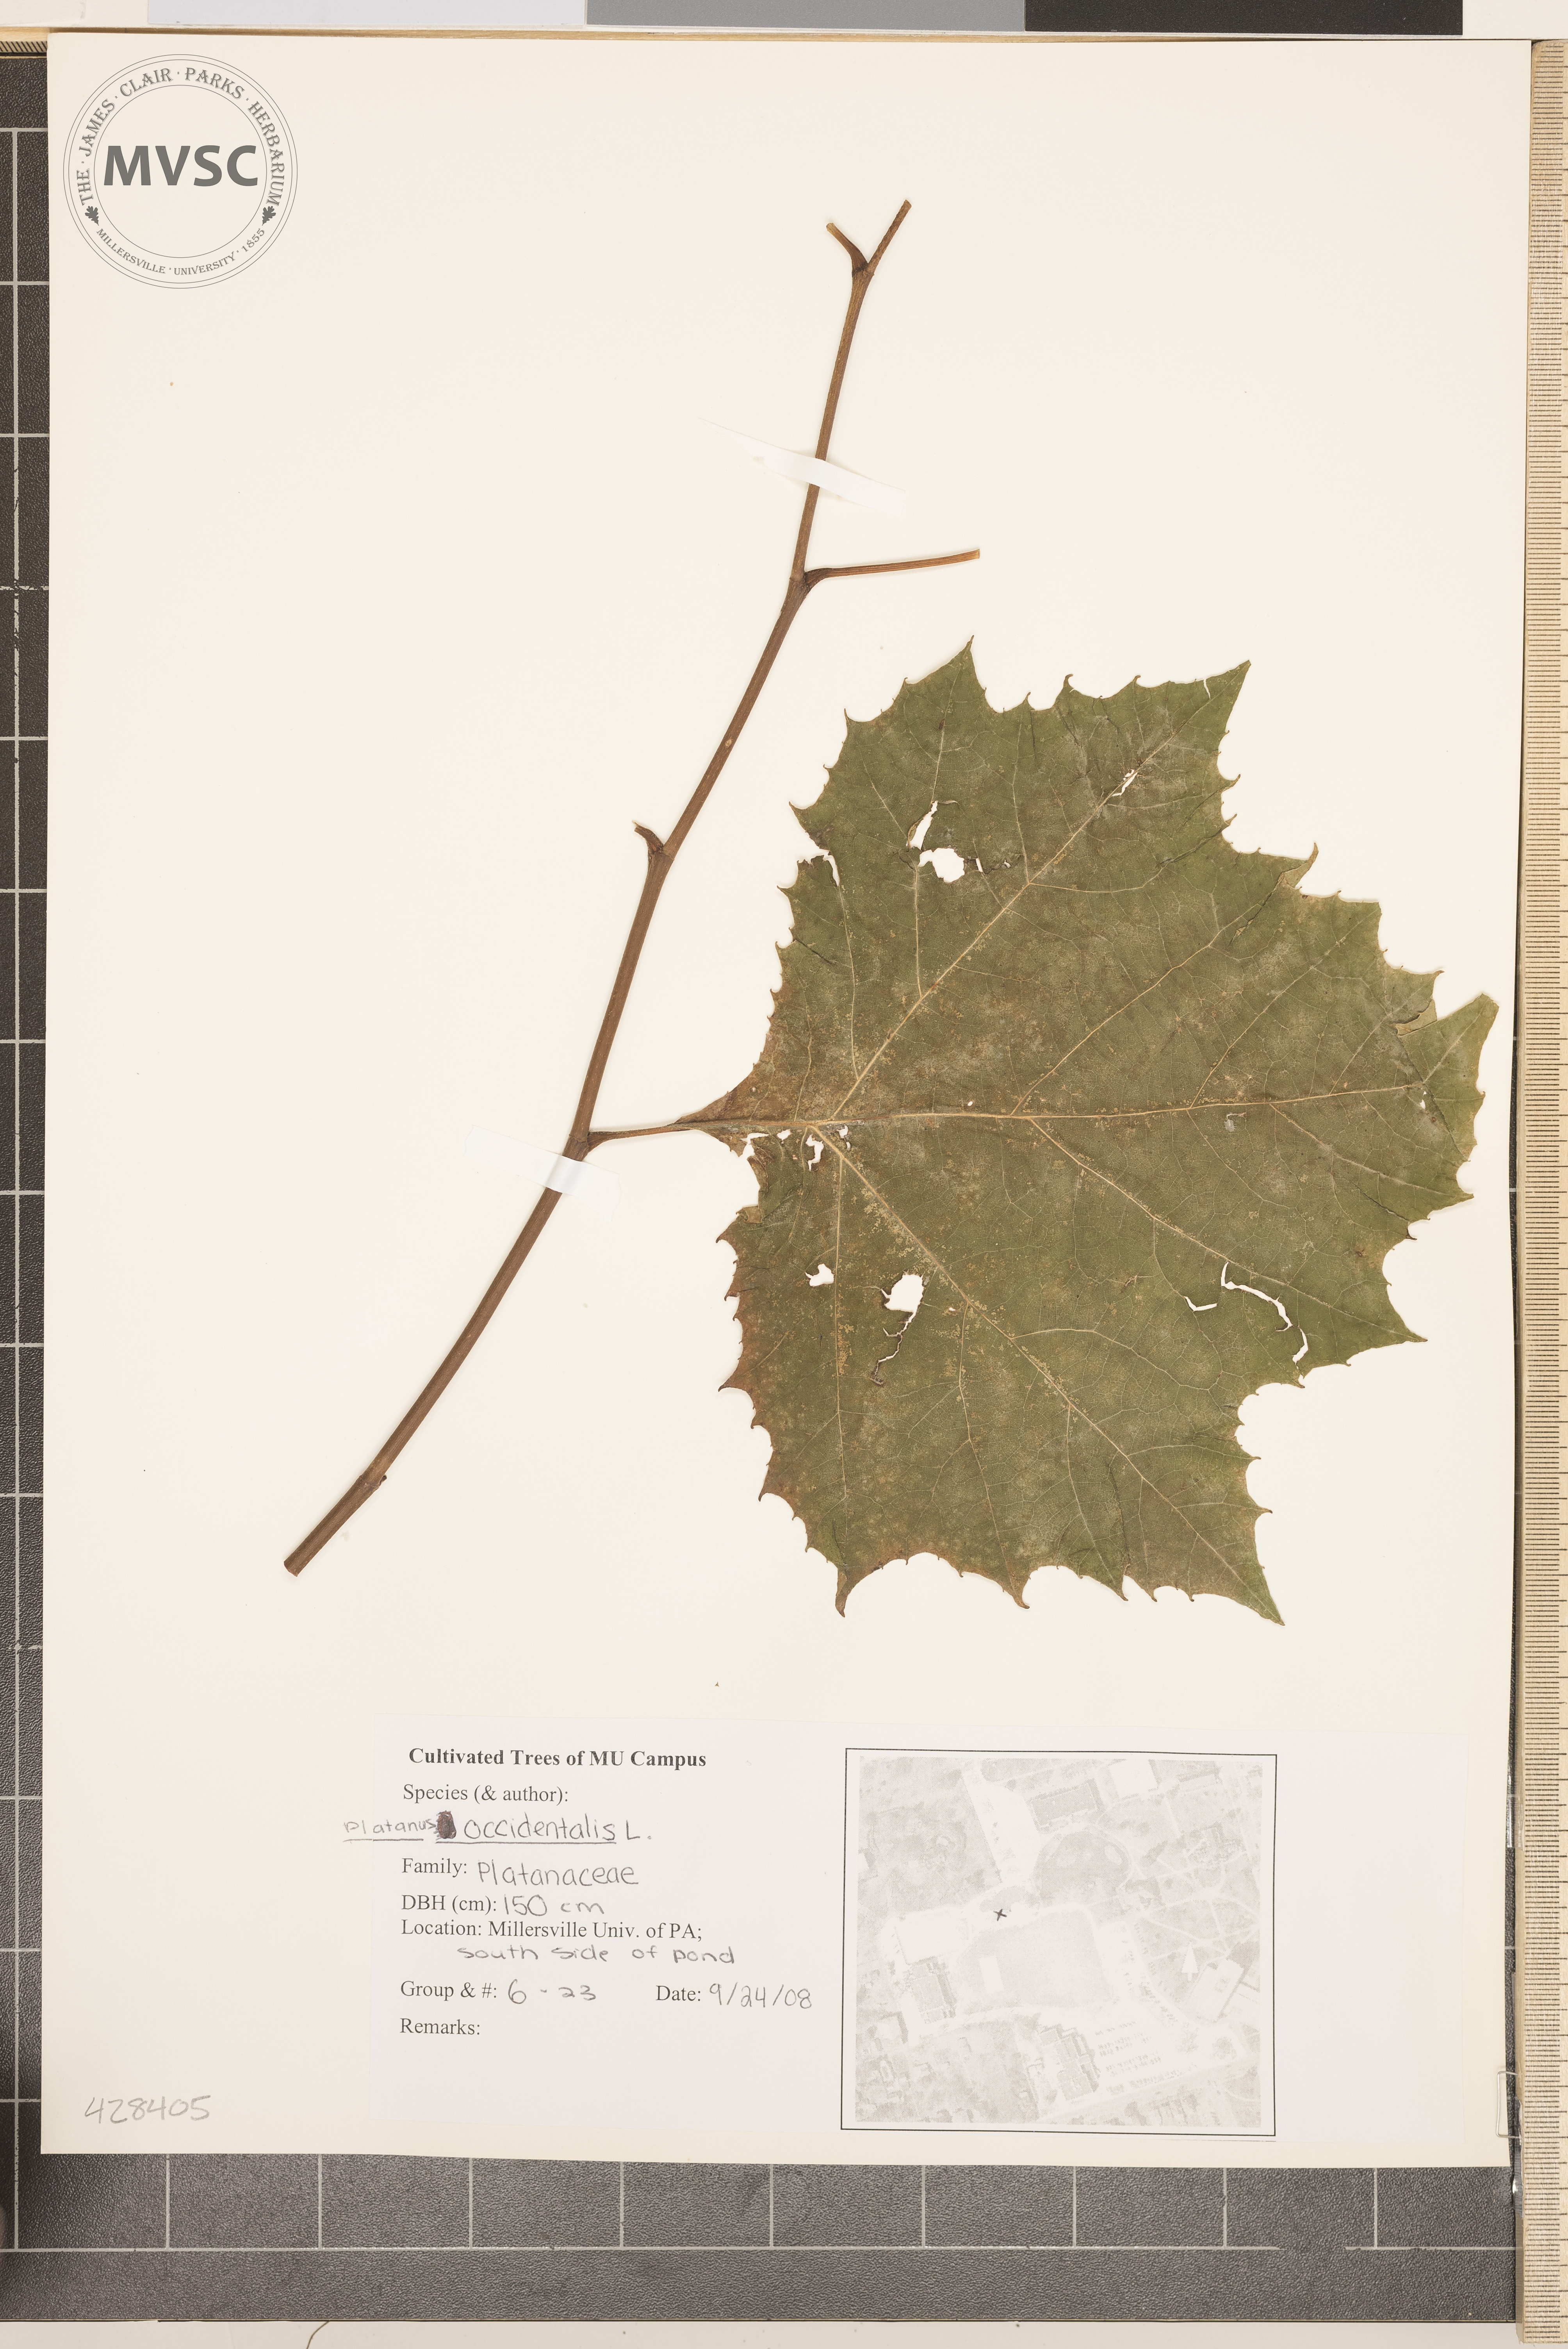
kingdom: Plantae
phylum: Tracheophyta
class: Magnoliopsida
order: Proteales
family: Platanaceae
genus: Platanus
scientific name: Platanus occidentalis
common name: Sycamore
